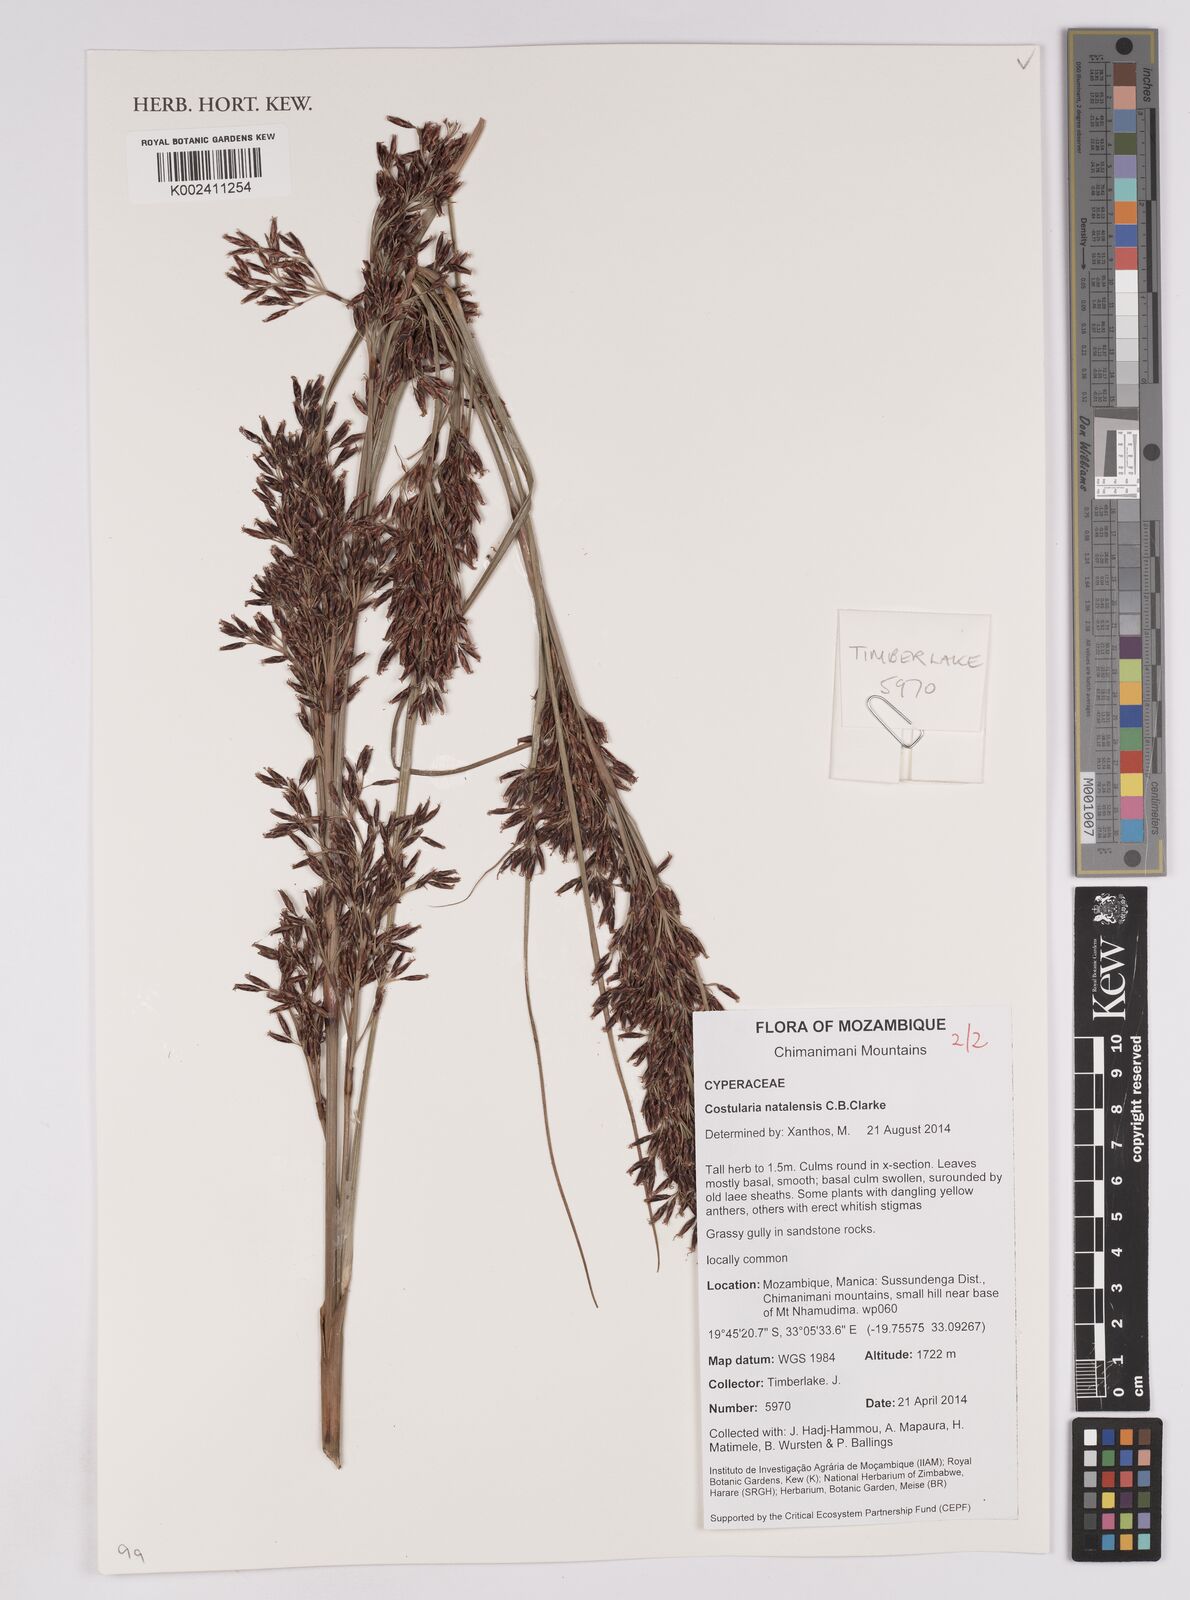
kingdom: Plantae
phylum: Tracheophyta
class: Liliopsida
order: Poales
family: Cyperaceae
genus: Costularia
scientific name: Costularia natalensis
